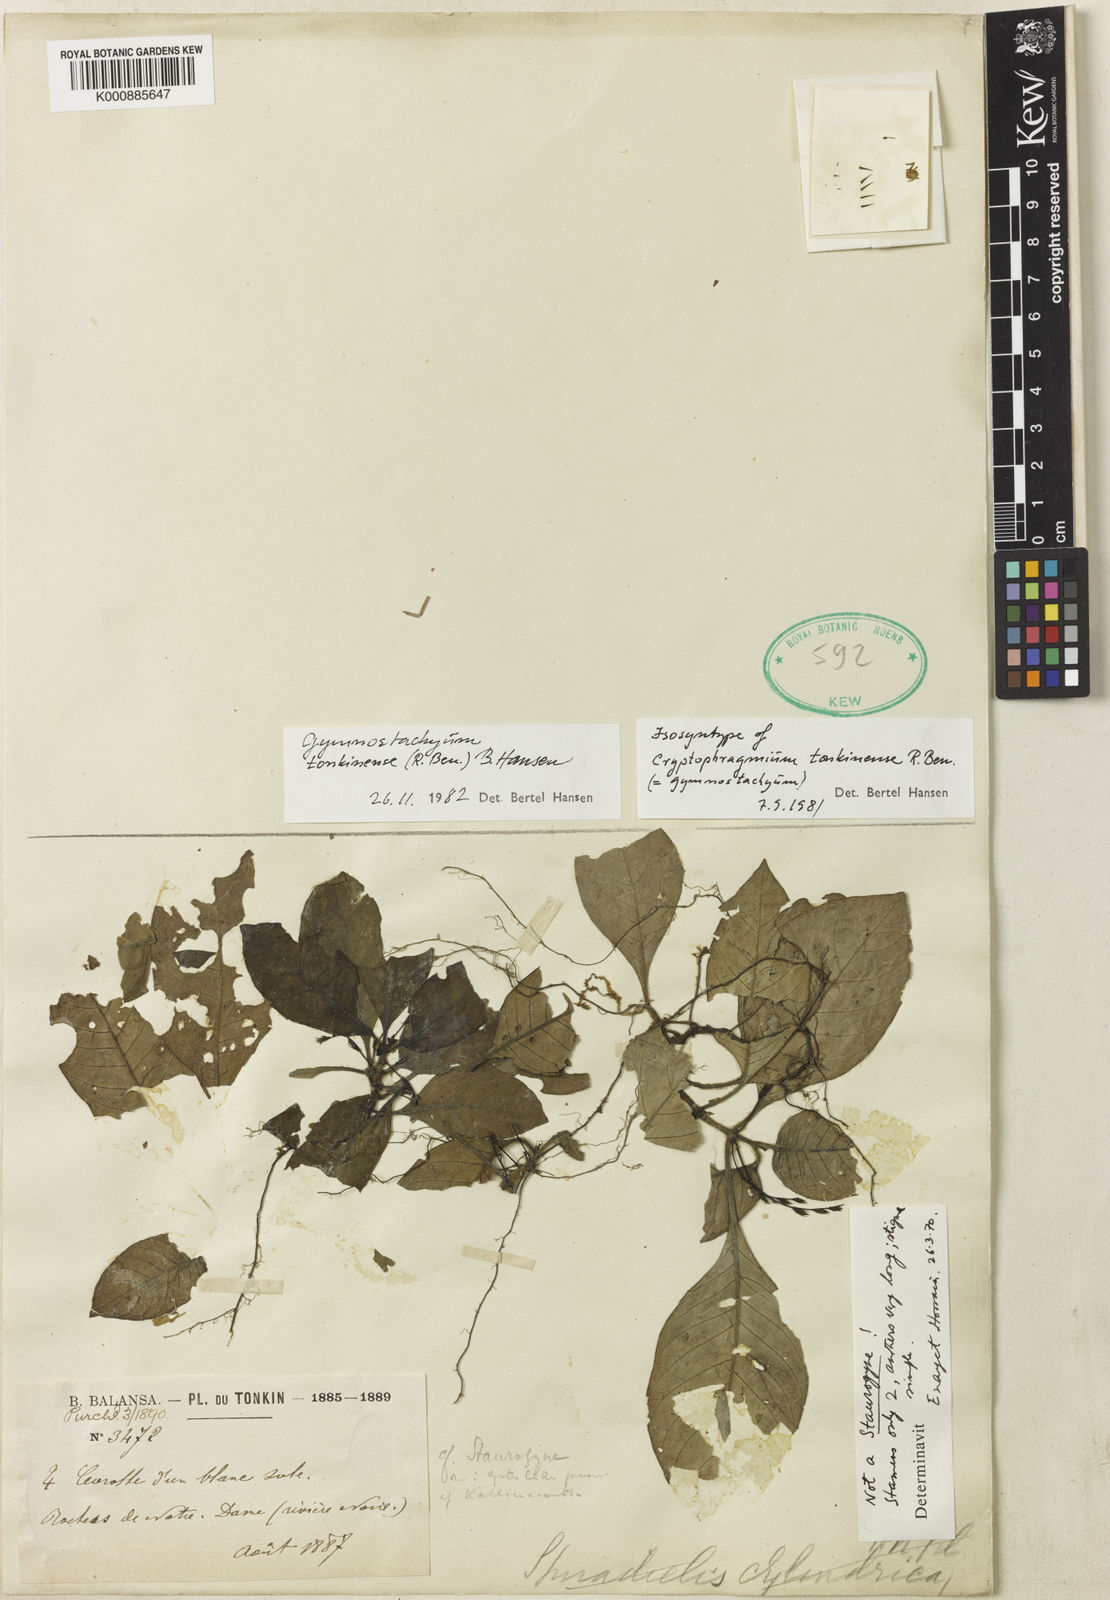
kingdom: Plantae
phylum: Tracheophyta
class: Magnoliopsida
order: Lamiales
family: Acanthaceae
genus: Gymnostachyum
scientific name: Gymnostachyum
